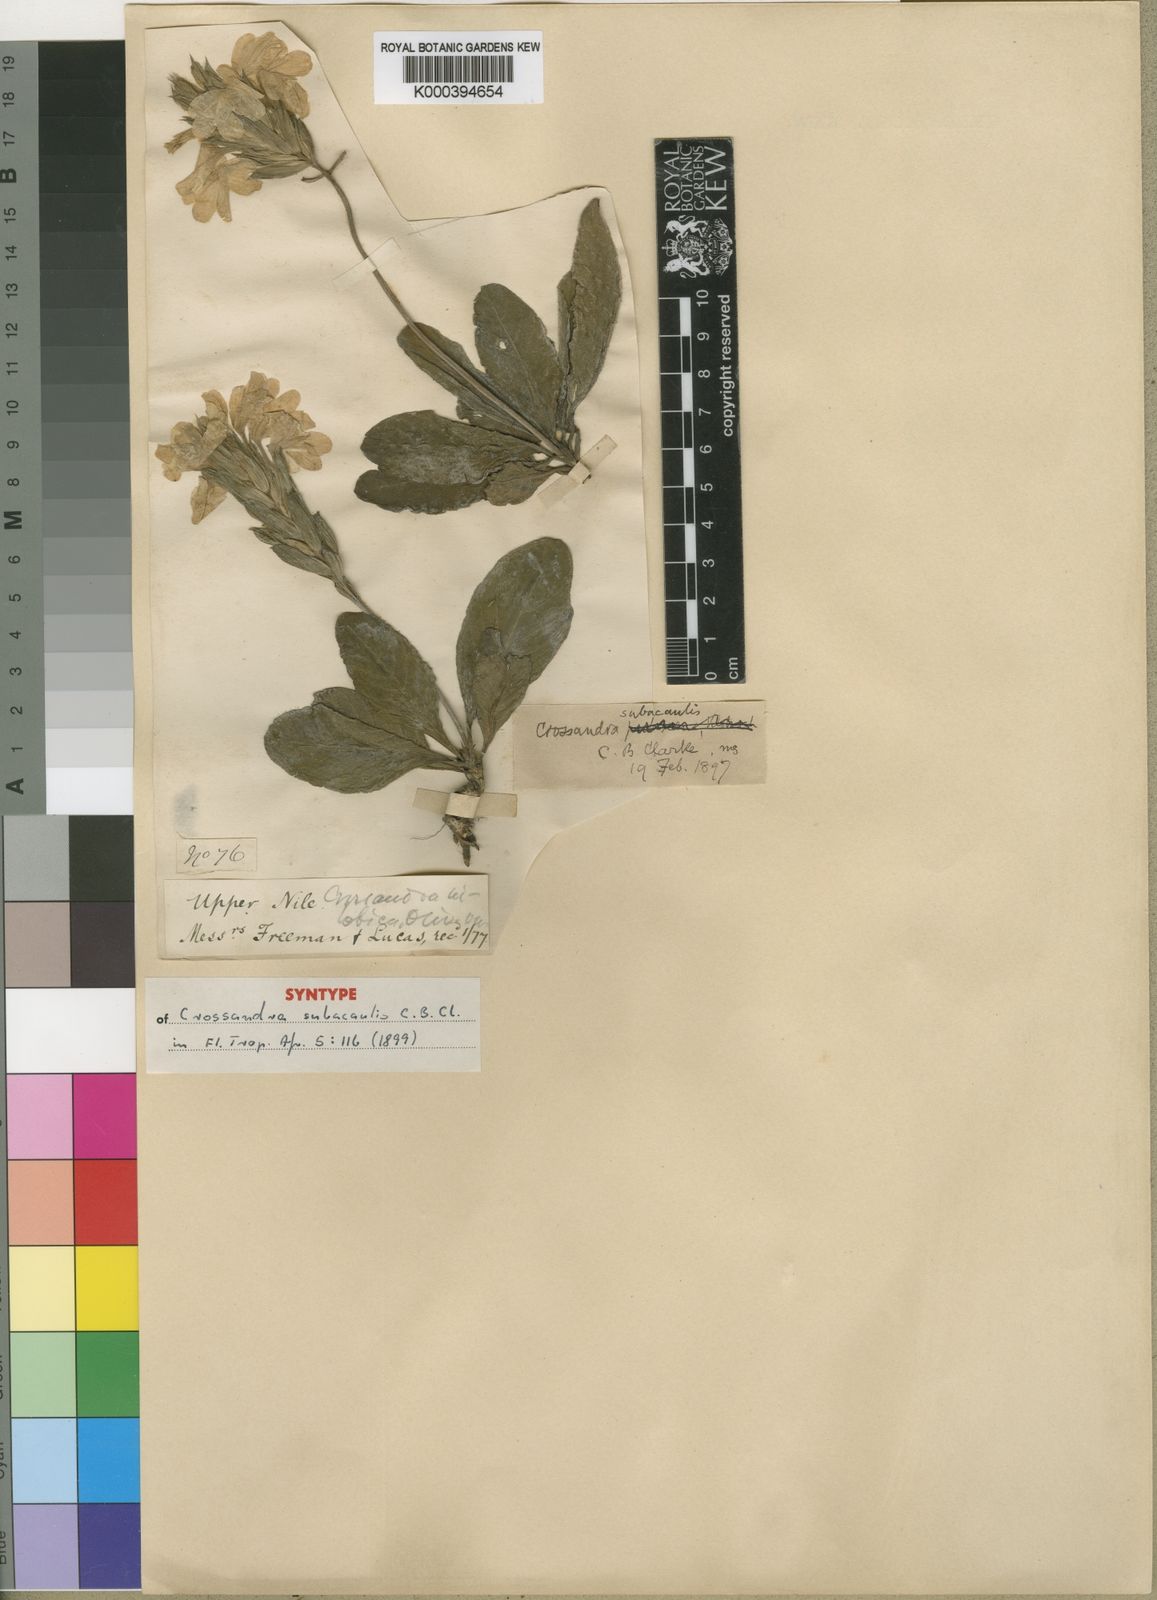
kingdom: Plantae
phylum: Tracheophyta
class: Magnoliopsida
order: Lamiales
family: Acanthaceae
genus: Crossandra
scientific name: Crossandra subacaulis
